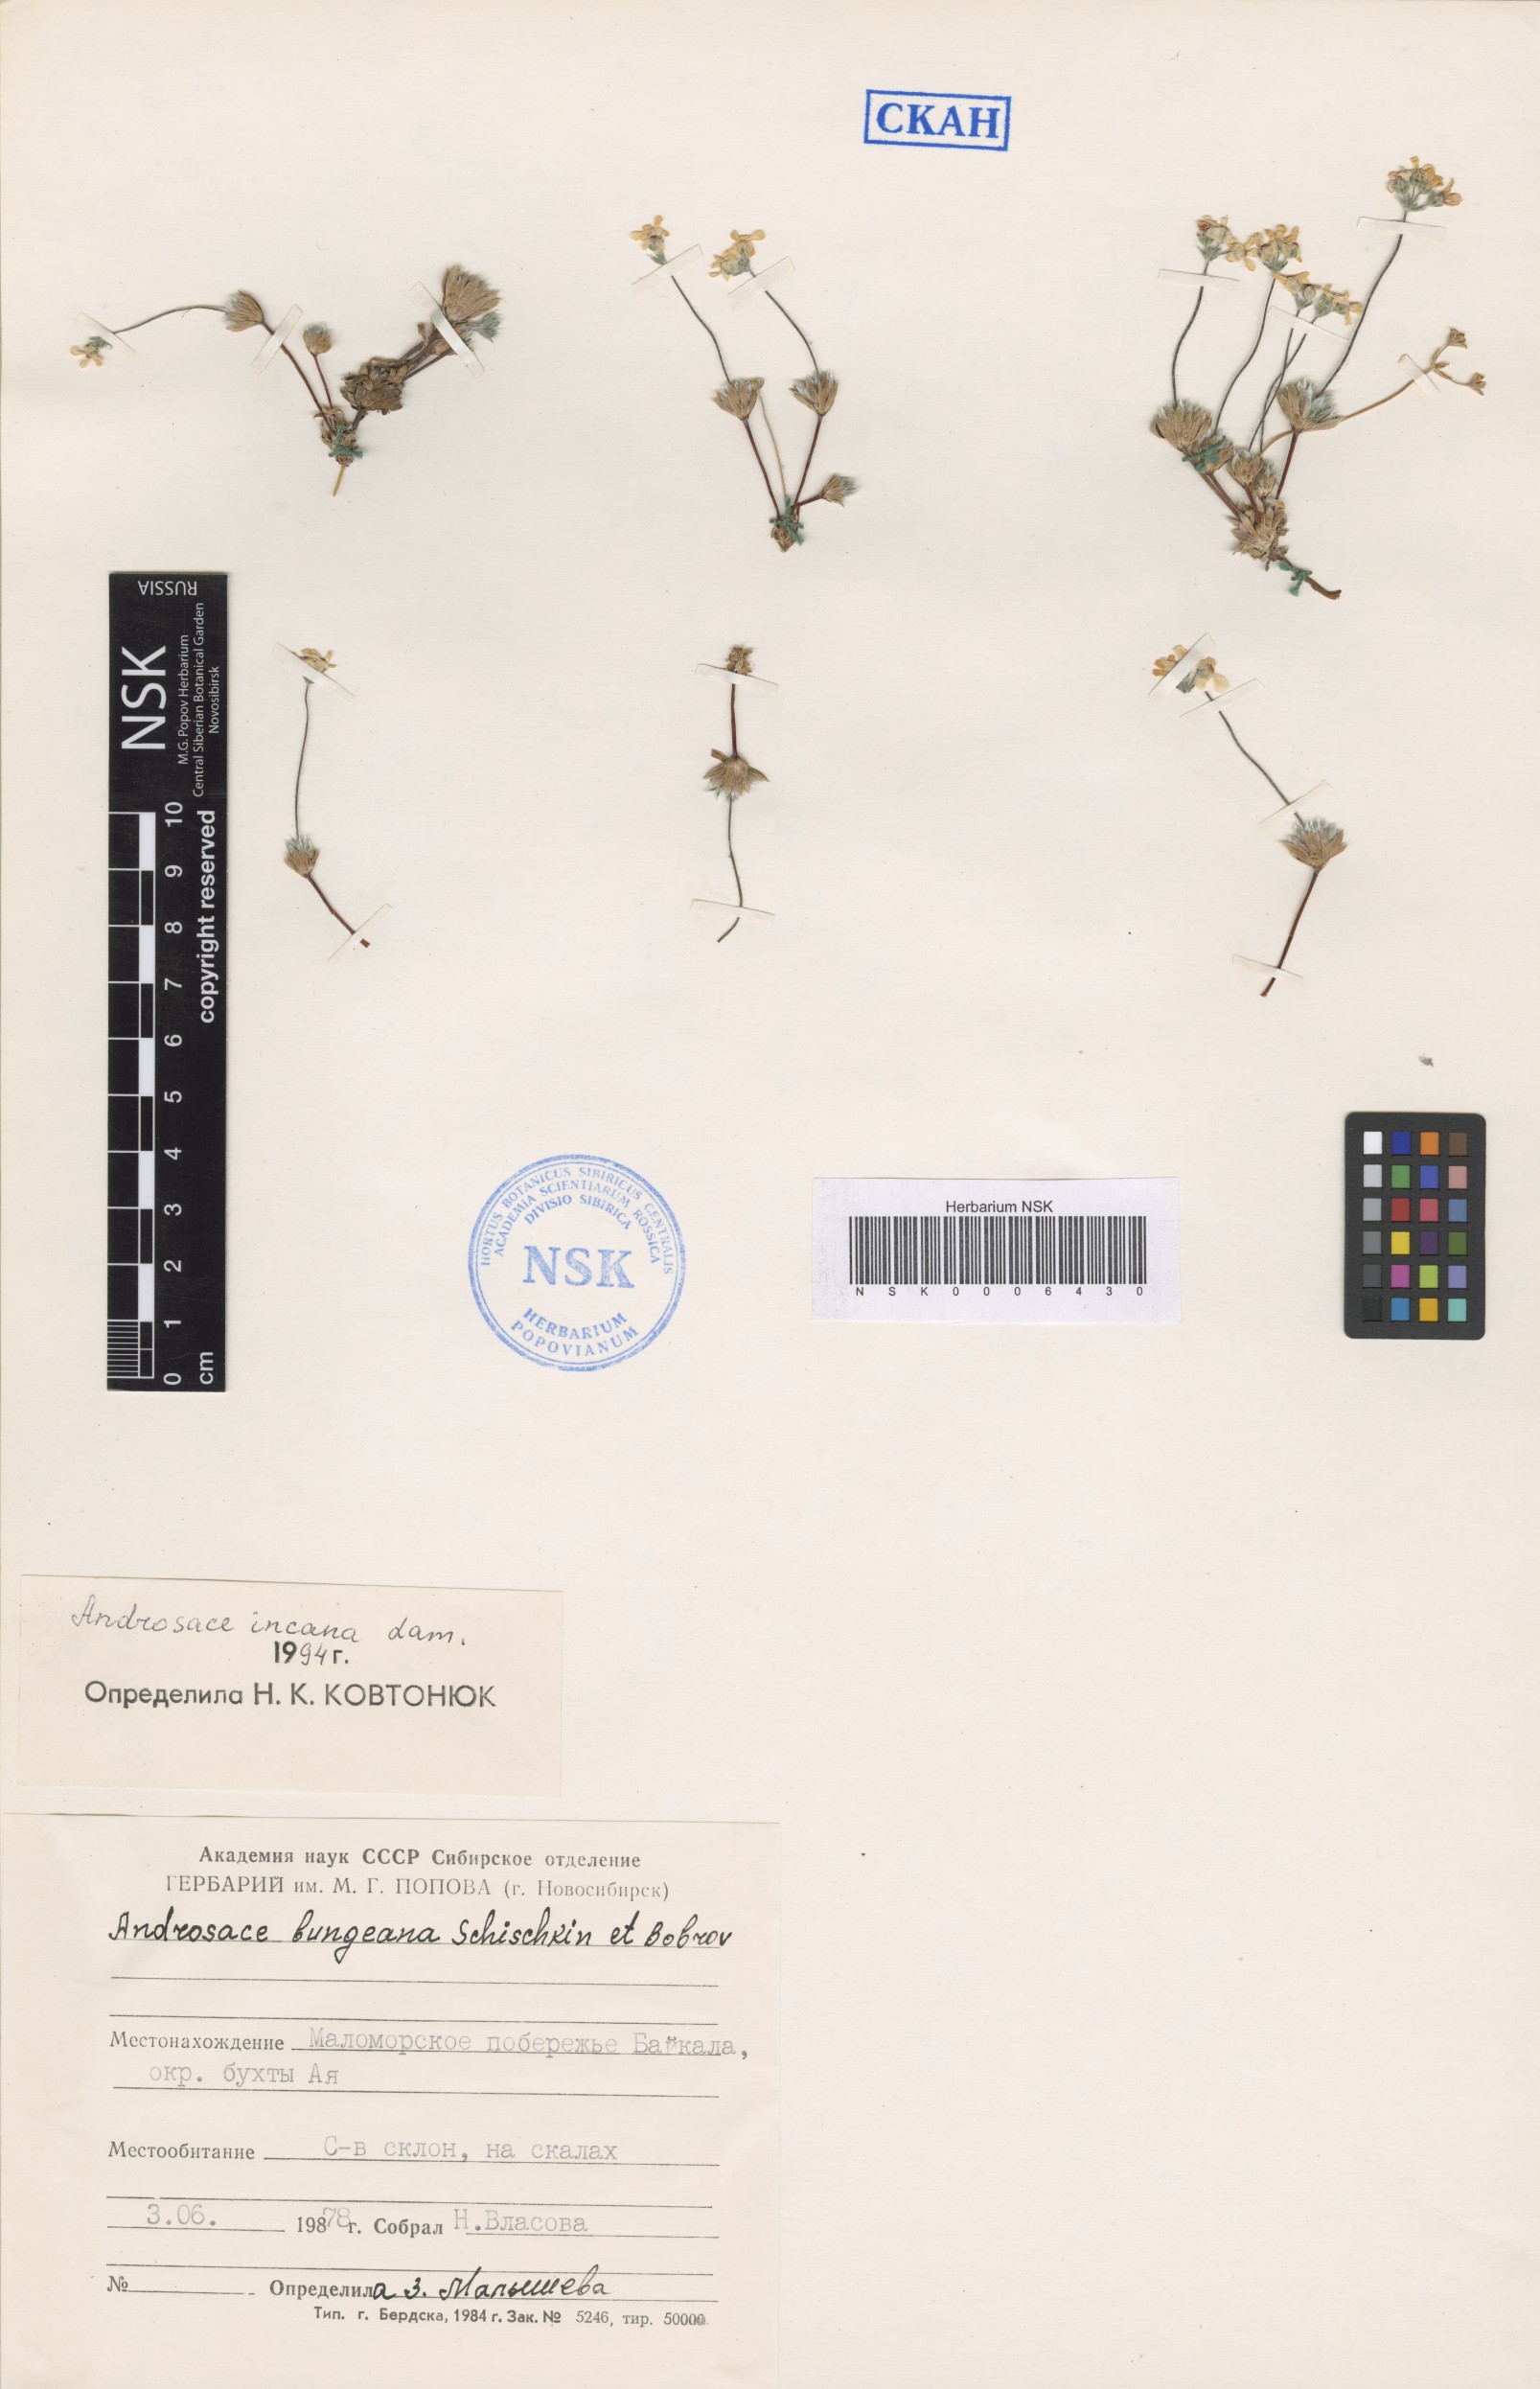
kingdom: Plantae
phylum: Tracheophyta
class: Magnoliopsida
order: Ericales
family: Primulaceae
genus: Androsace
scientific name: Androsace incana
